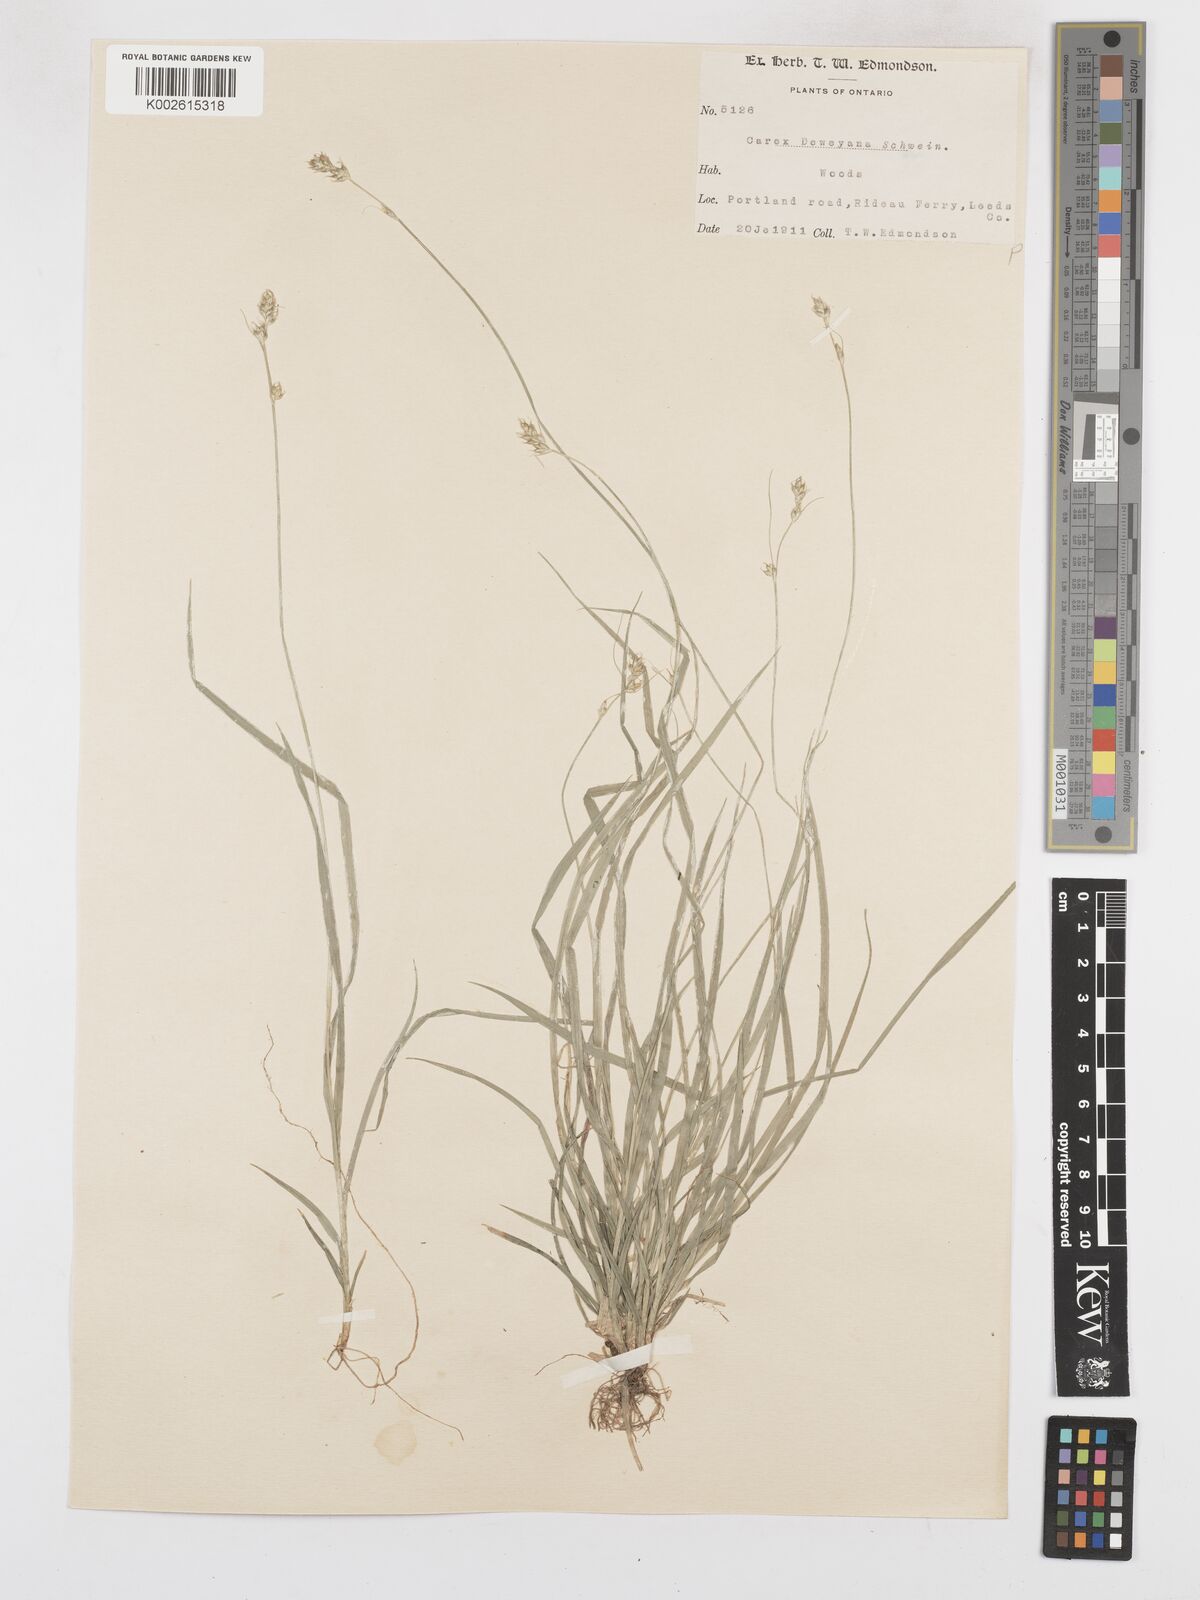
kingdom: Plantae
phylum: Tracheophyta
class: Liliopsida
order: Poales
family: Cyperaceae
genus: Carex
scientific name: Carex deweyana
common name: Dewey's sedge
